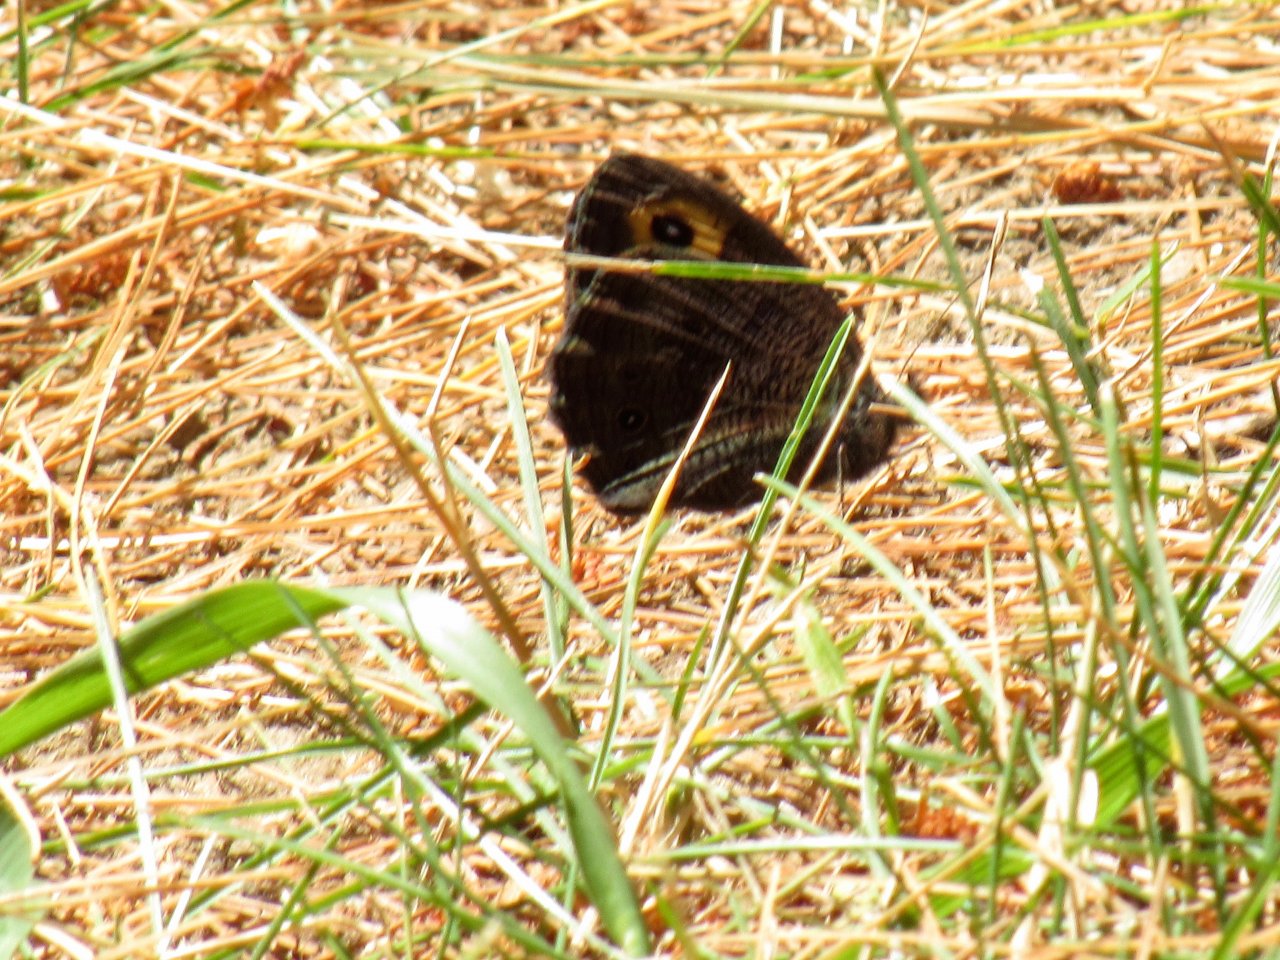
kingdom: Animalia
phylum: Arthropoda
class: Insecta
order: Lepidoptera
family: Nymphalidae
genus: Cercyonis
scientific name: Cercyonis pegala
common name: Common Wood-Nymph
